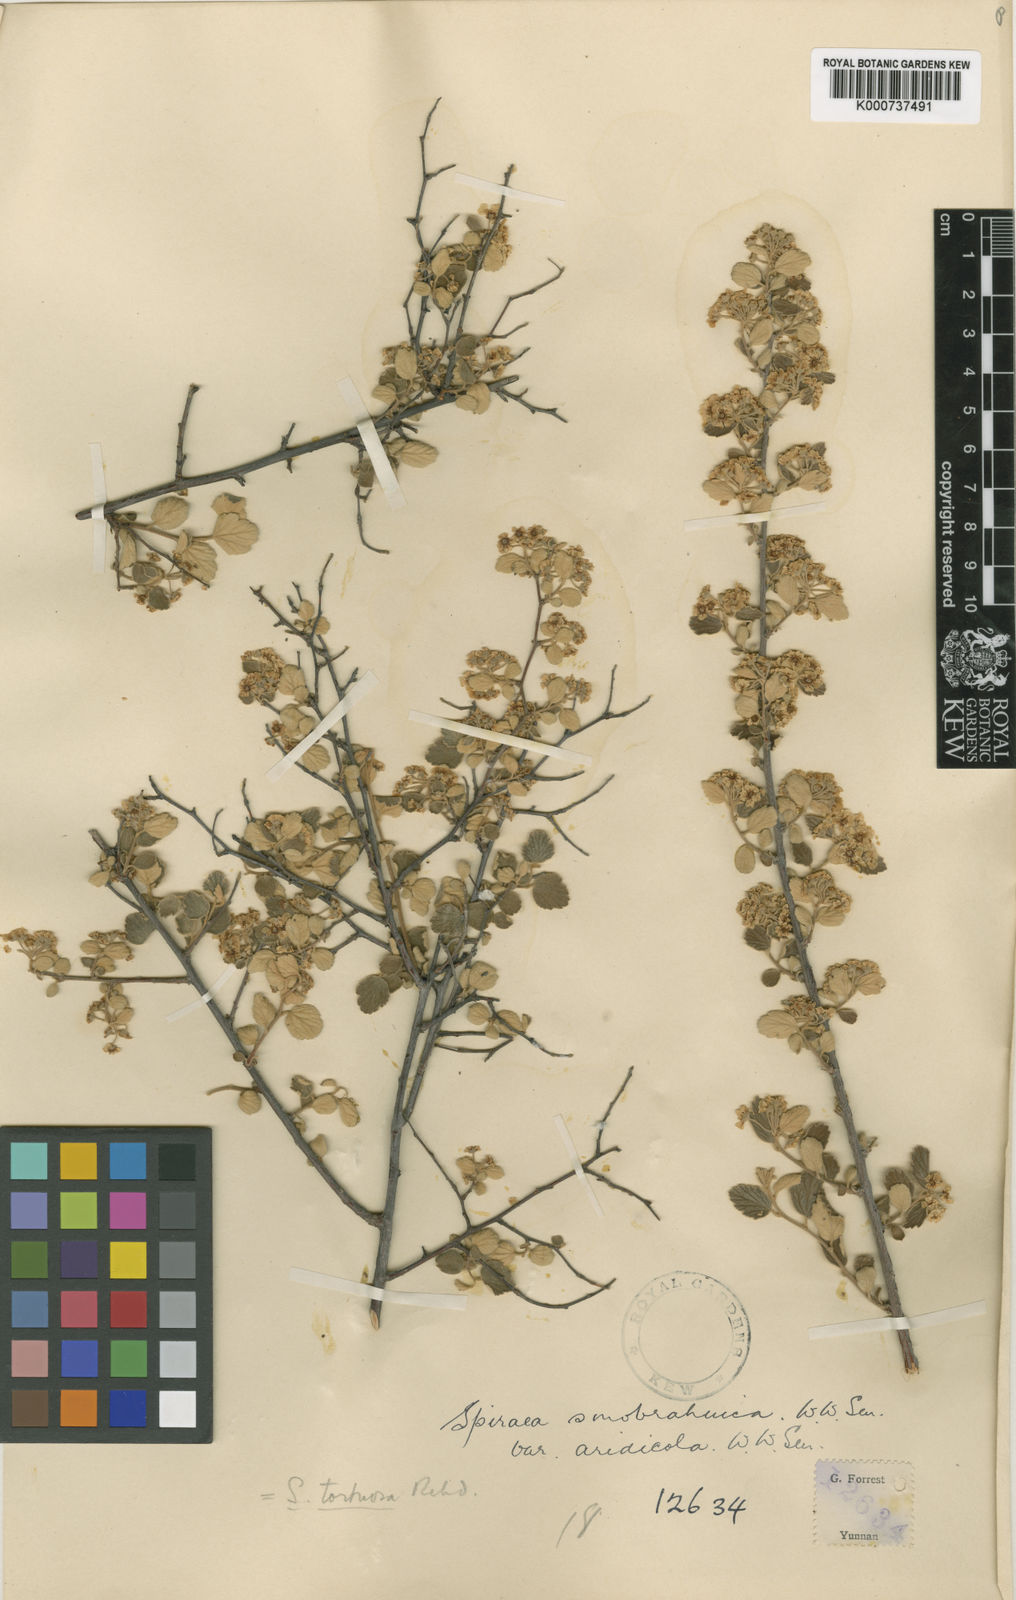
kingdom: Plantae
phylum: Tracheophyta
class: Magnoliopsida
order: Rosales
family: Rosaceae
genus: Spiraea
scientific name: Spiraea yunnanensis
